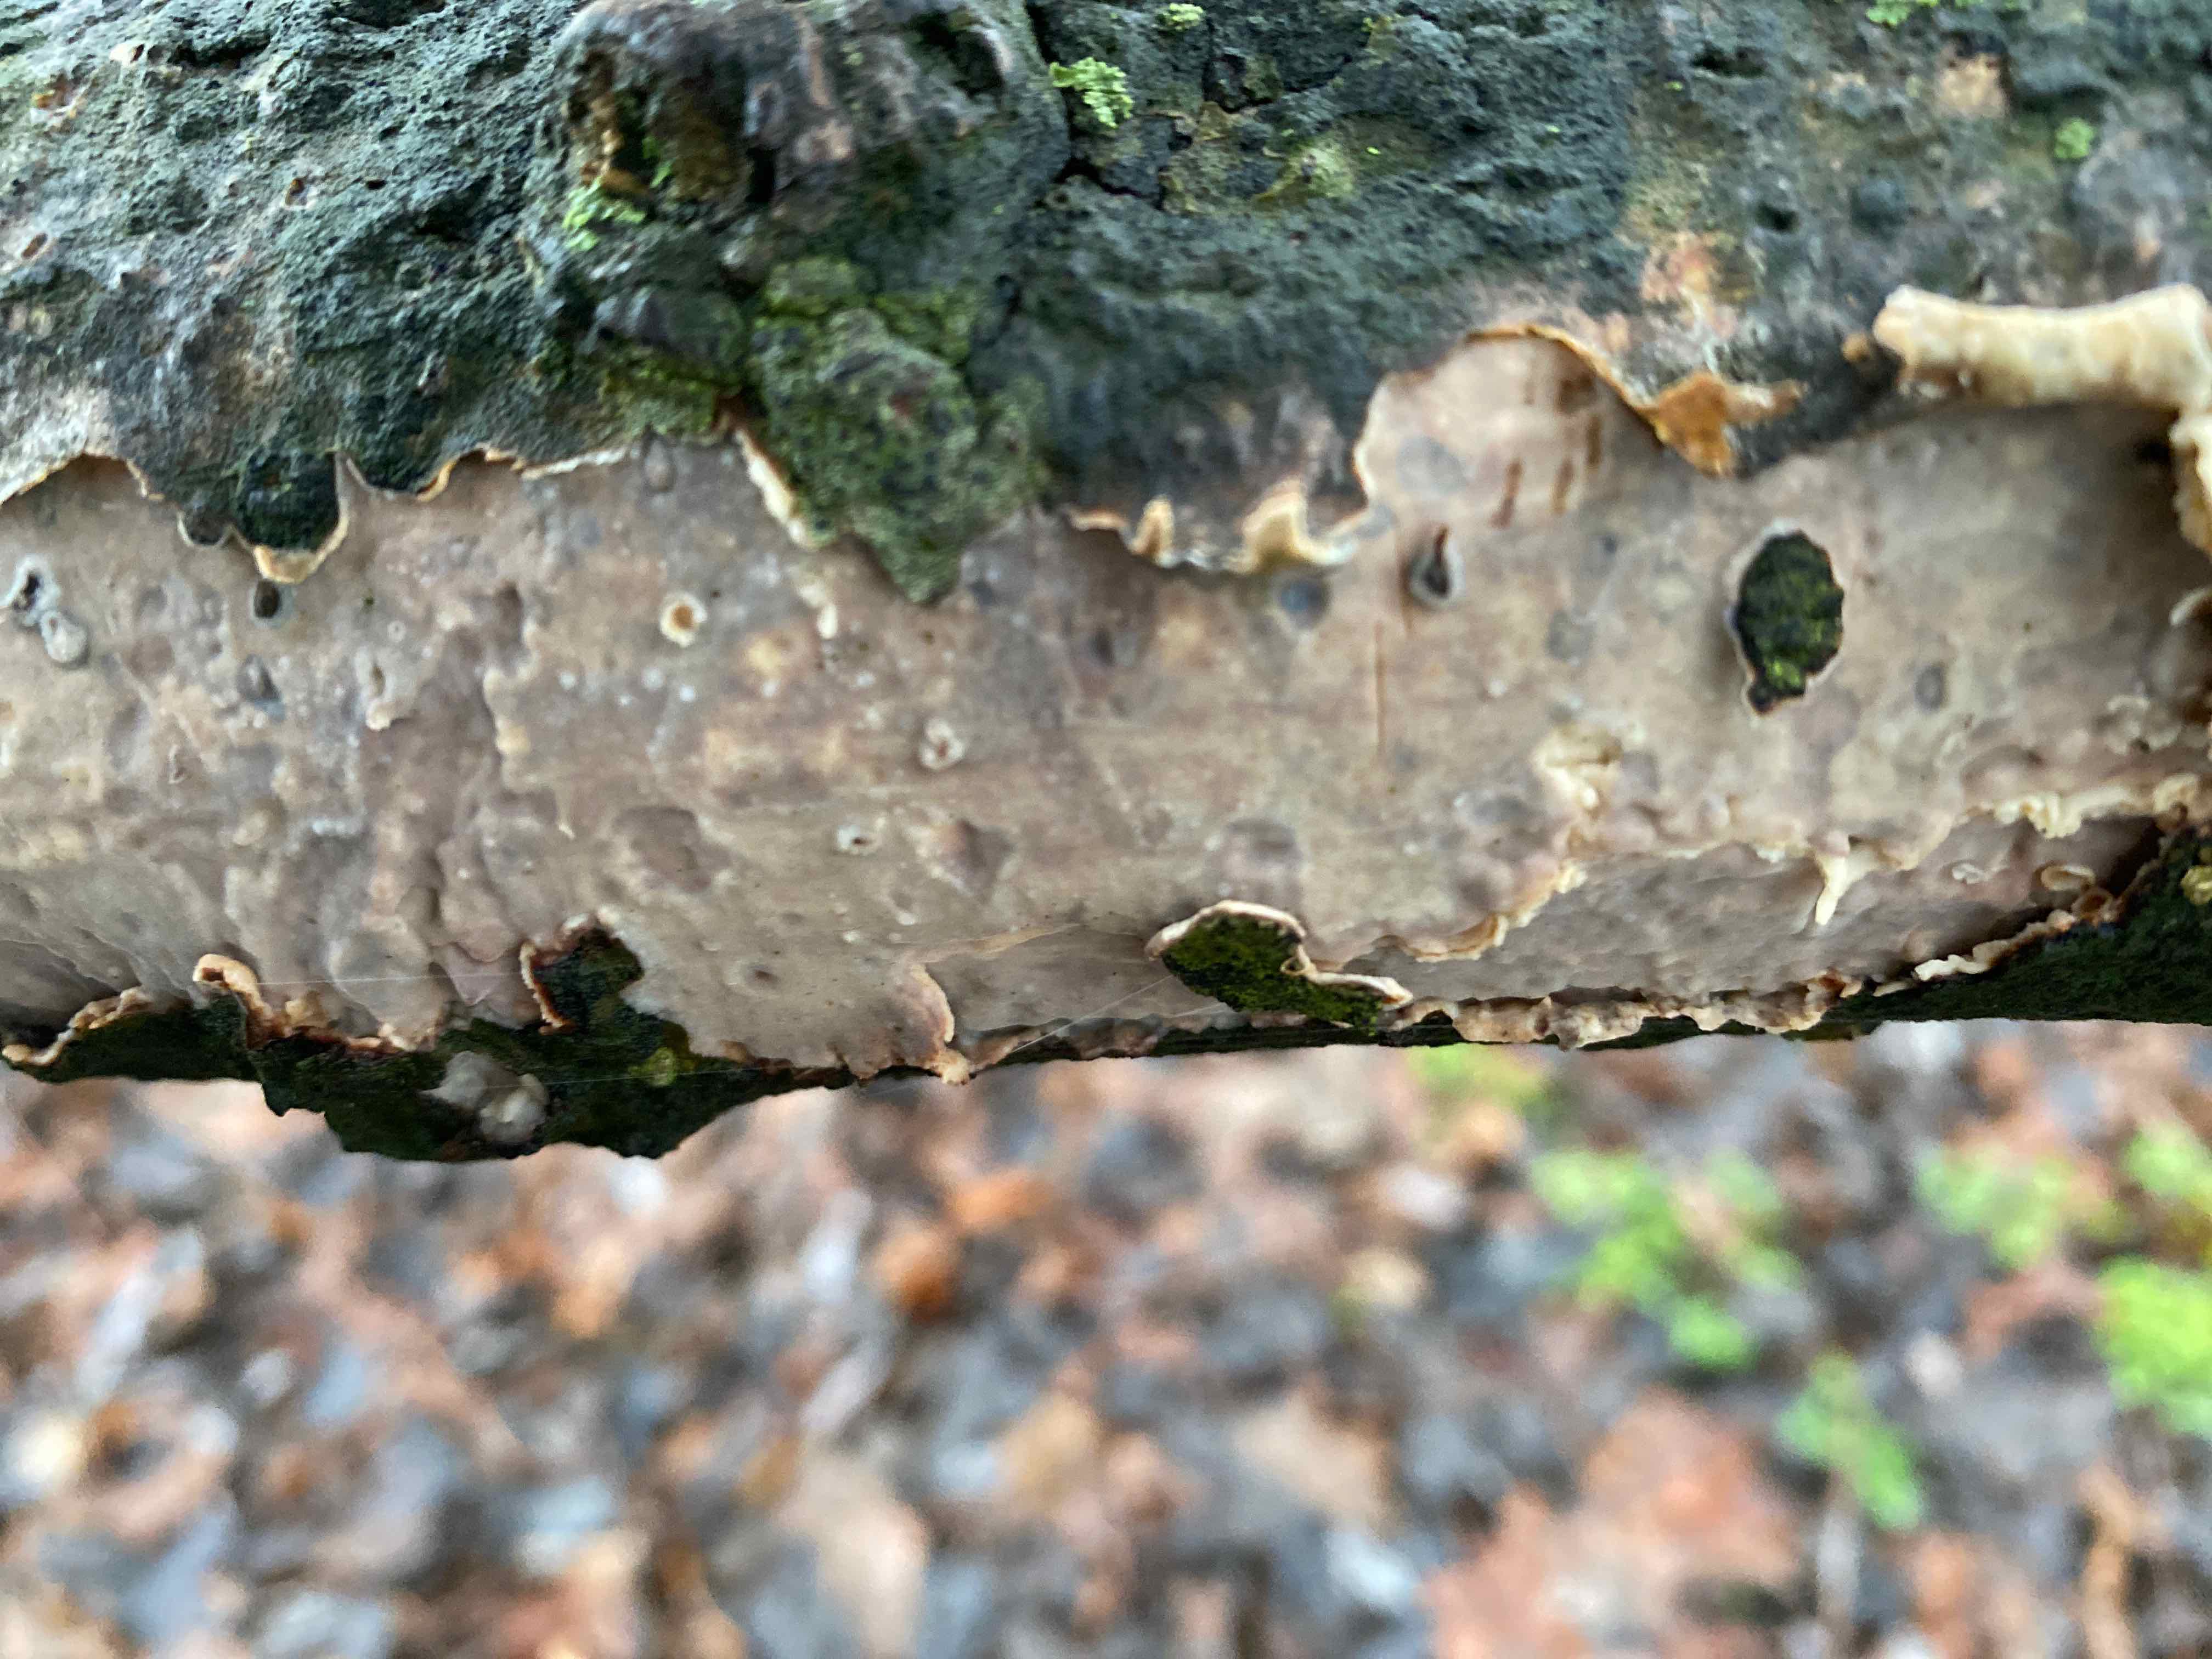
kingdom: Fungi
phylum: Basidiomycota
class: Agaricomycetes
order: Corticiales
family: Vuilleminiaceae
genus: Vuilleminia
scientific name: Vuilleminia comedens
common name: almindelig barksprænger
